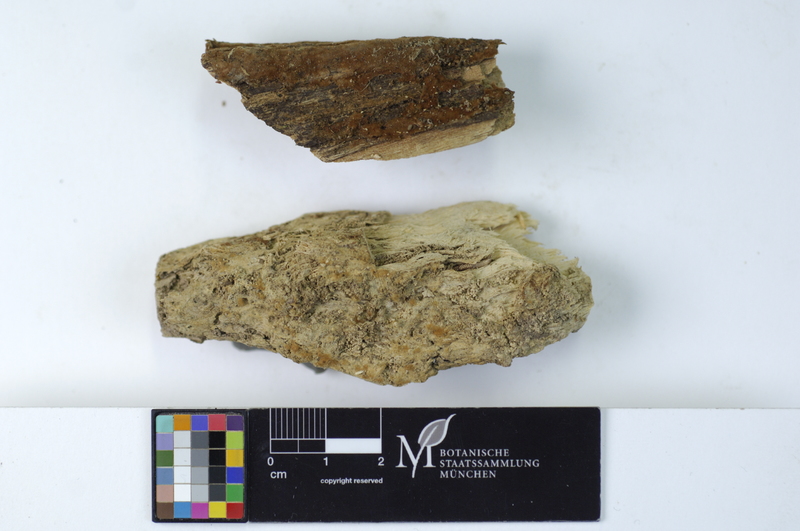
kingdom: Fungi
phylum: Basidiomycota
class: Agaricomycetes
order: Cantharellales
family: Botryobasidiaceae
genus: Botryobasidium
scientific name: Botryobasidium rubiginosum
